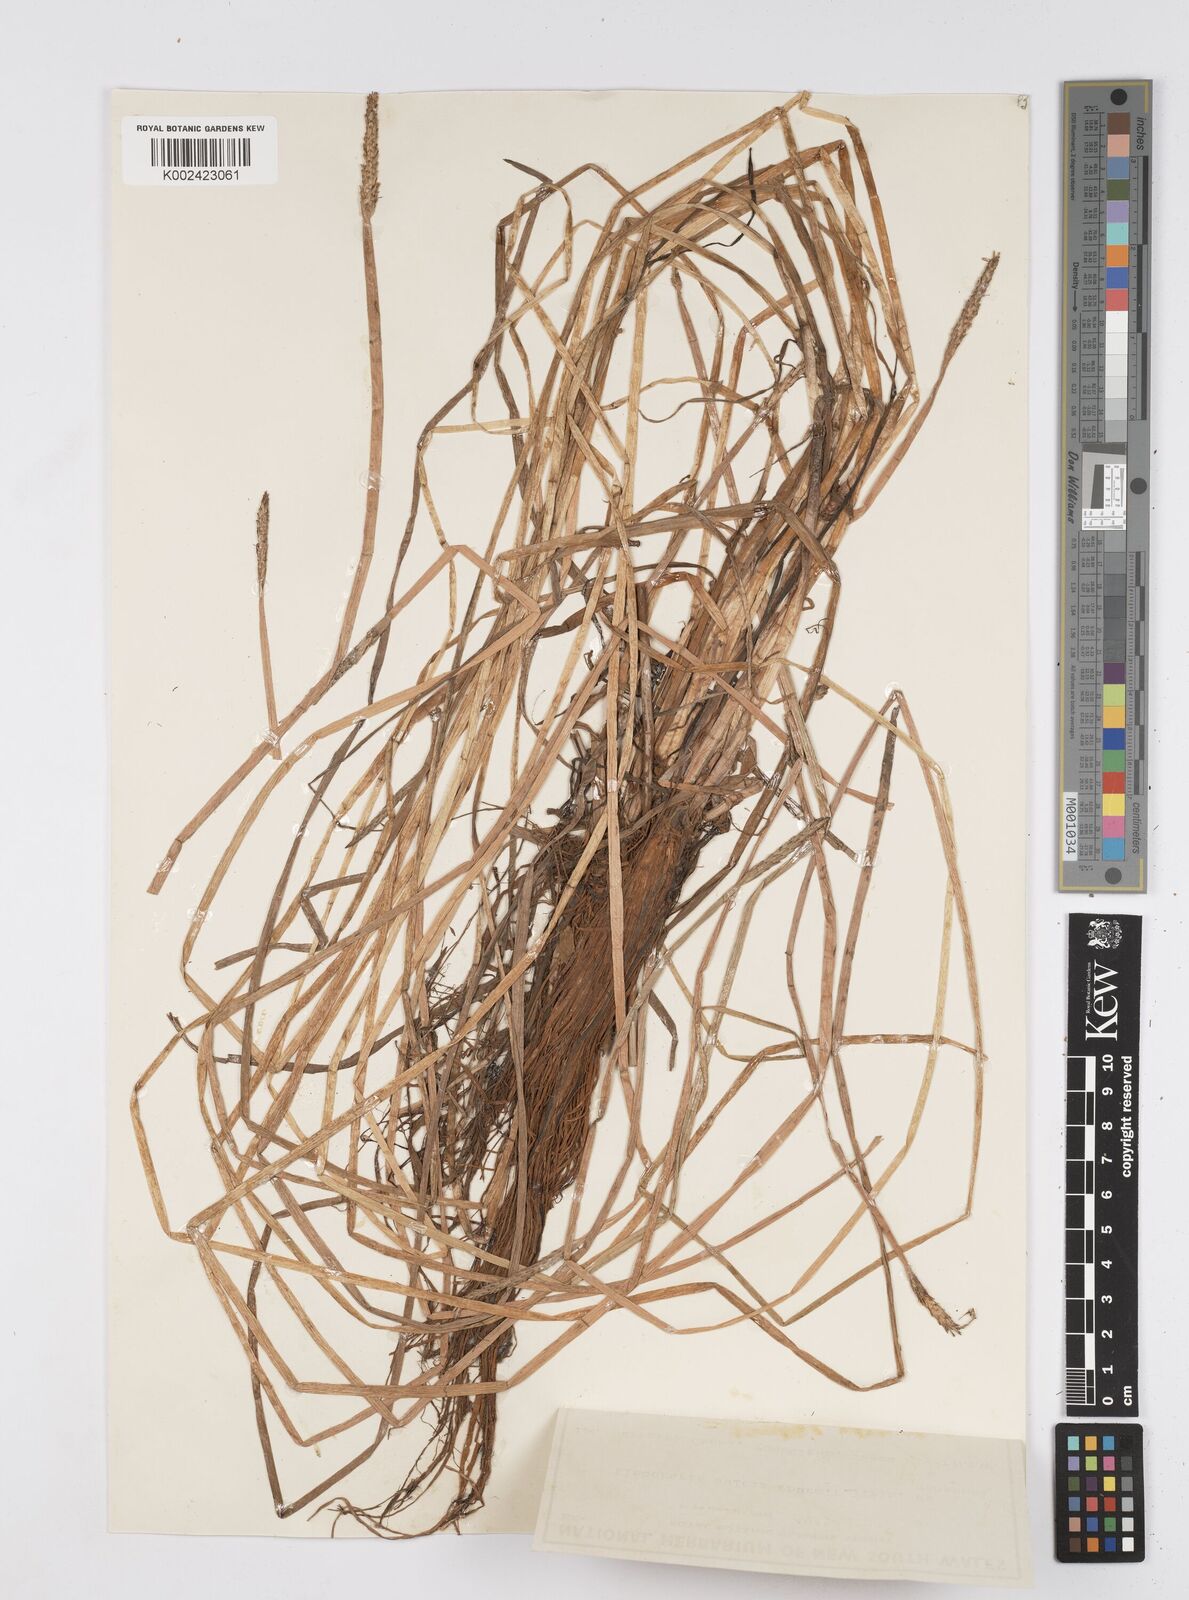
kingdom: Plantae
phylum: Tracheophyta
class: Liliopsida
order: Poales
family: Cyperaceae
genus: Eleocharis
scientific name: Eleocharis dulcis
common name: Chinese water chestnut
